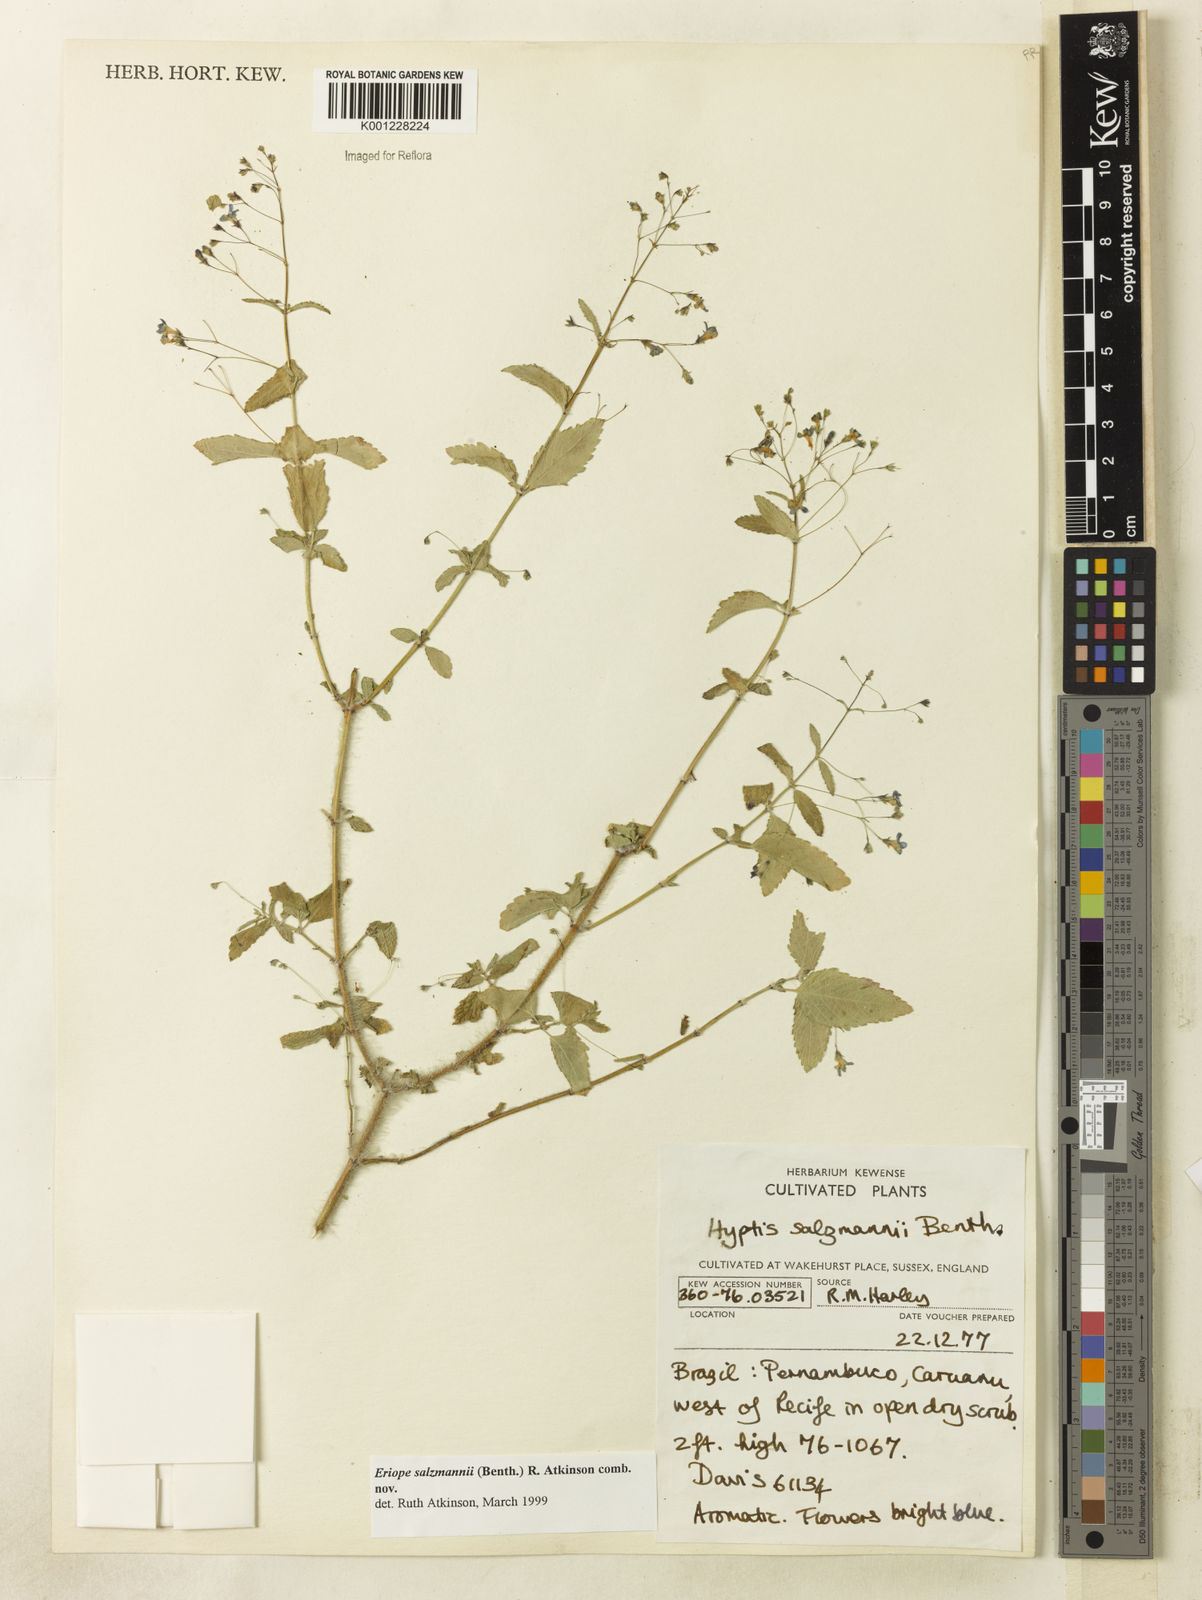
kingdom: Plantae
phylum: Tracheophyta
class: Magnoliopsida
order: Lamiales
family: Lamiaceae
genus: Hypenia
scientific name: Hypenia salzmannii
